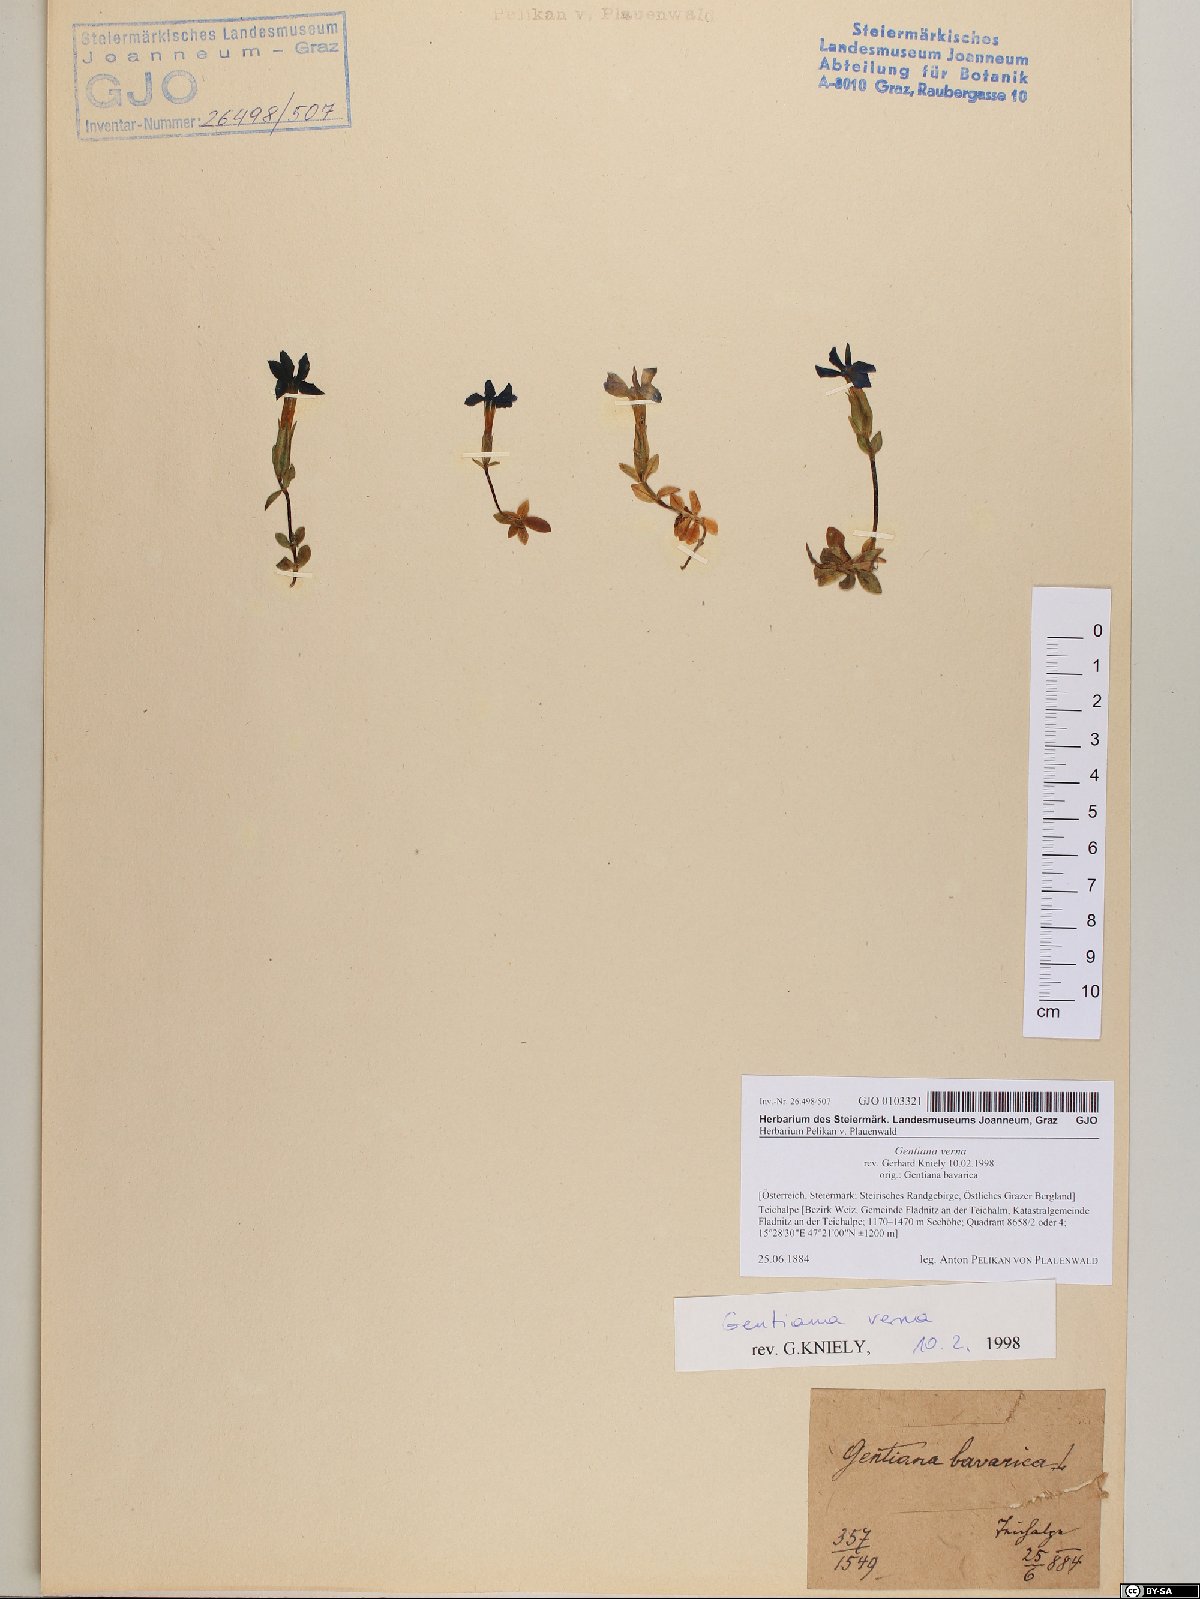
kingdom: Plantae
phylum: Tracheophyta
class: Magnoliopsida
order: Gentianales
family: Gentianaceae
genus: Gentiana
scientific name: Gentiana verna
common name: Spring gentian
